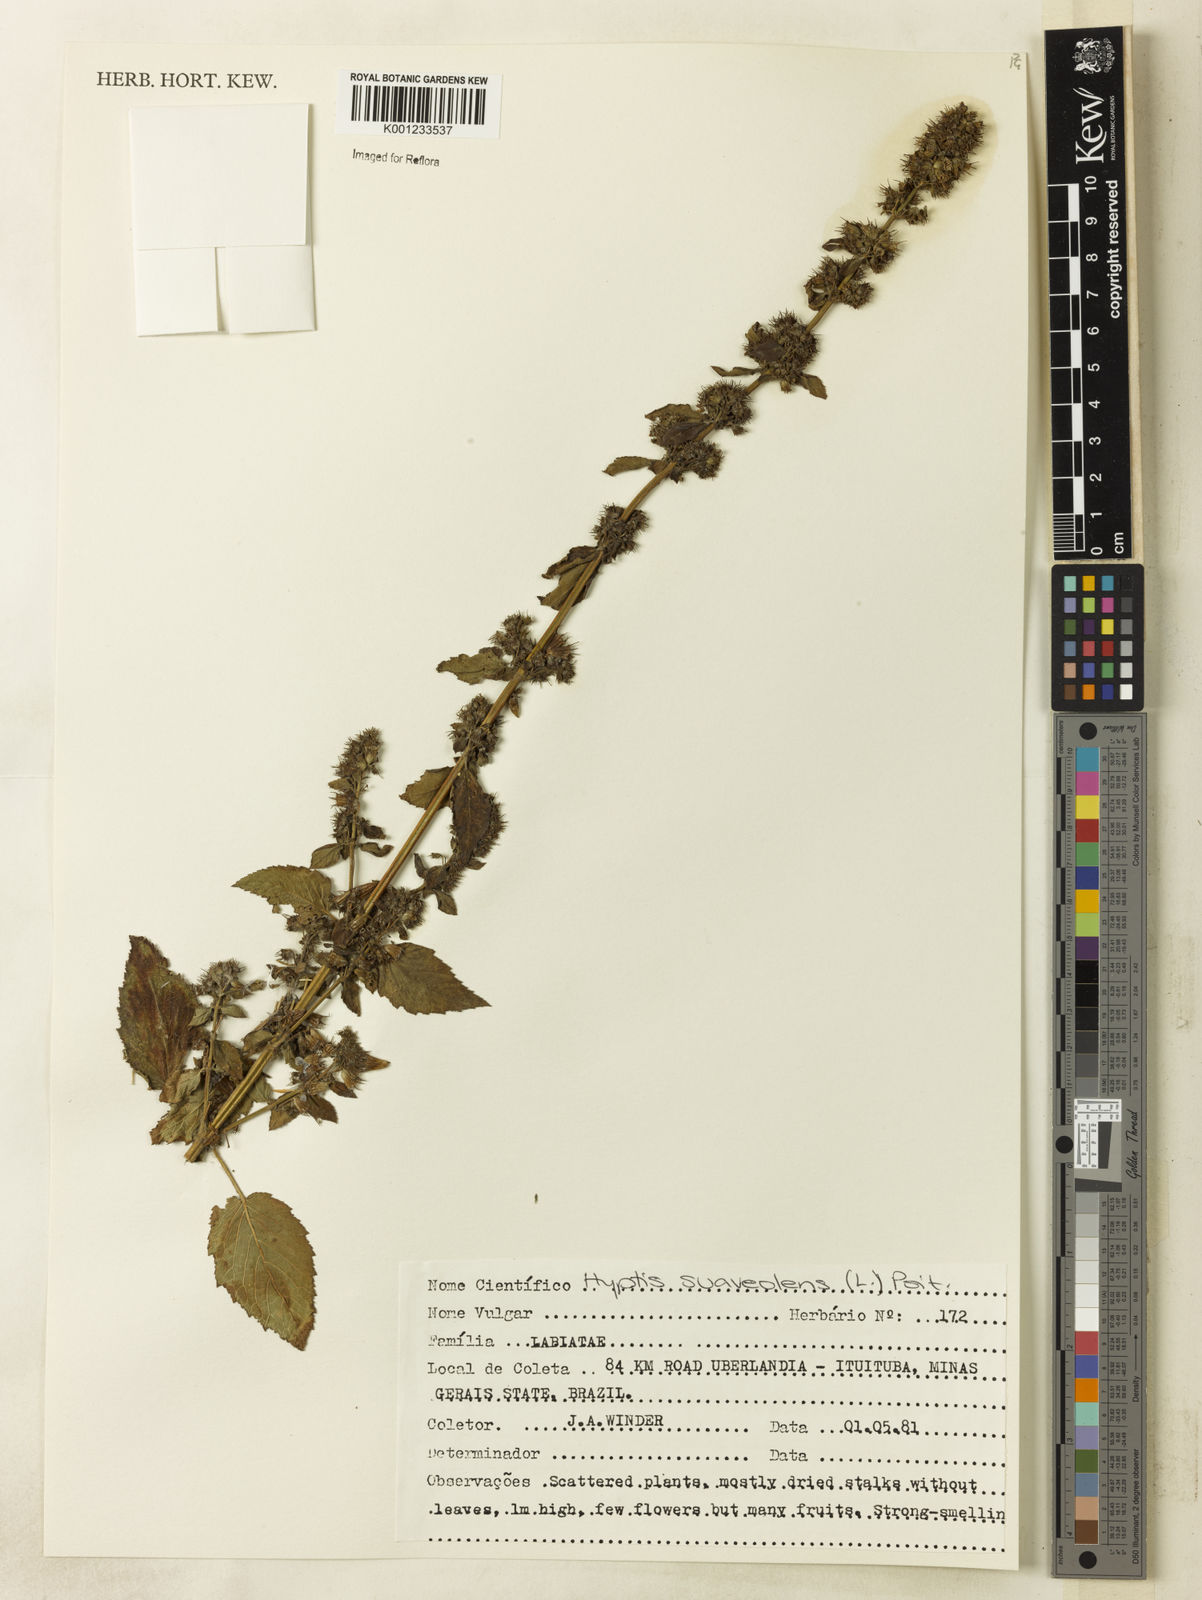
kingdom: Plantae
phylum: Tracheophyta
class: Magnoliopsida
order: Lamiales
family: Lamiaceae
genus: Mesosphaerum
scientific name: Mesosphaerum suaveolens
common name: Pignut
